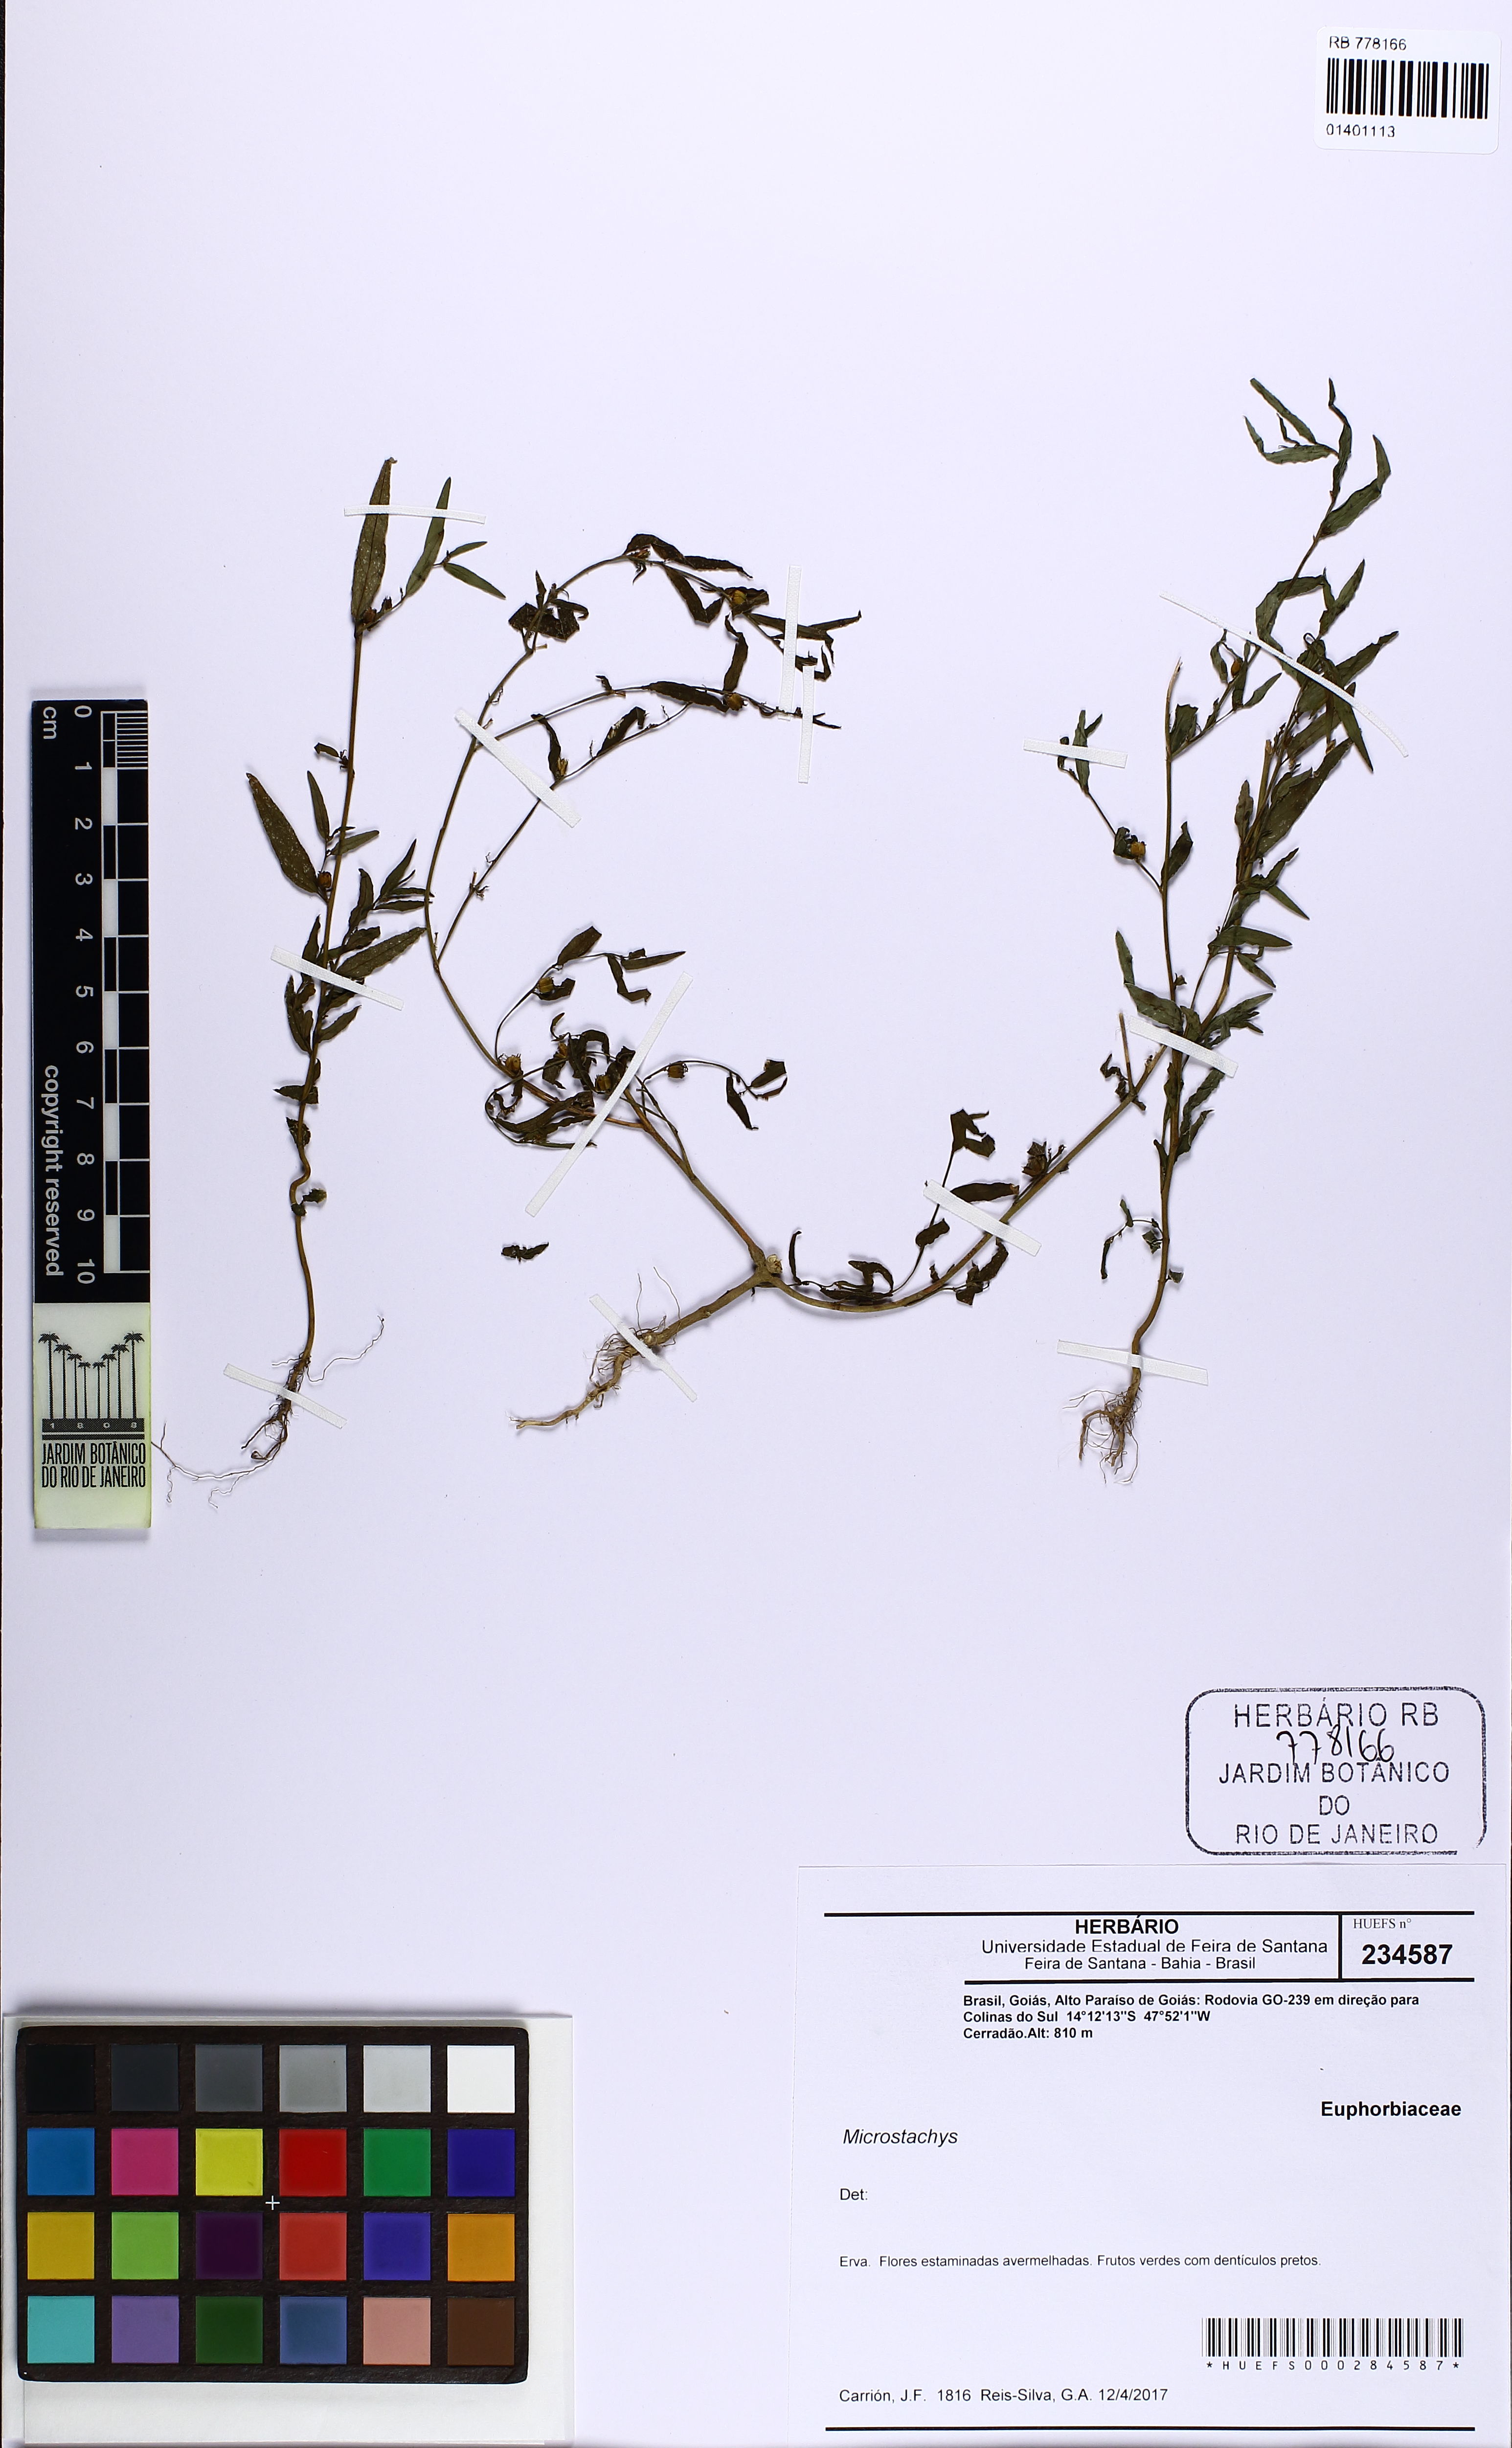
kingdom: Plantae
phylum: Tracheophyta
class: Magnoliopsida
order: Malpighiales
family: Euphorbiaceae
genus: Microstachys
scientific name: Microstachys
